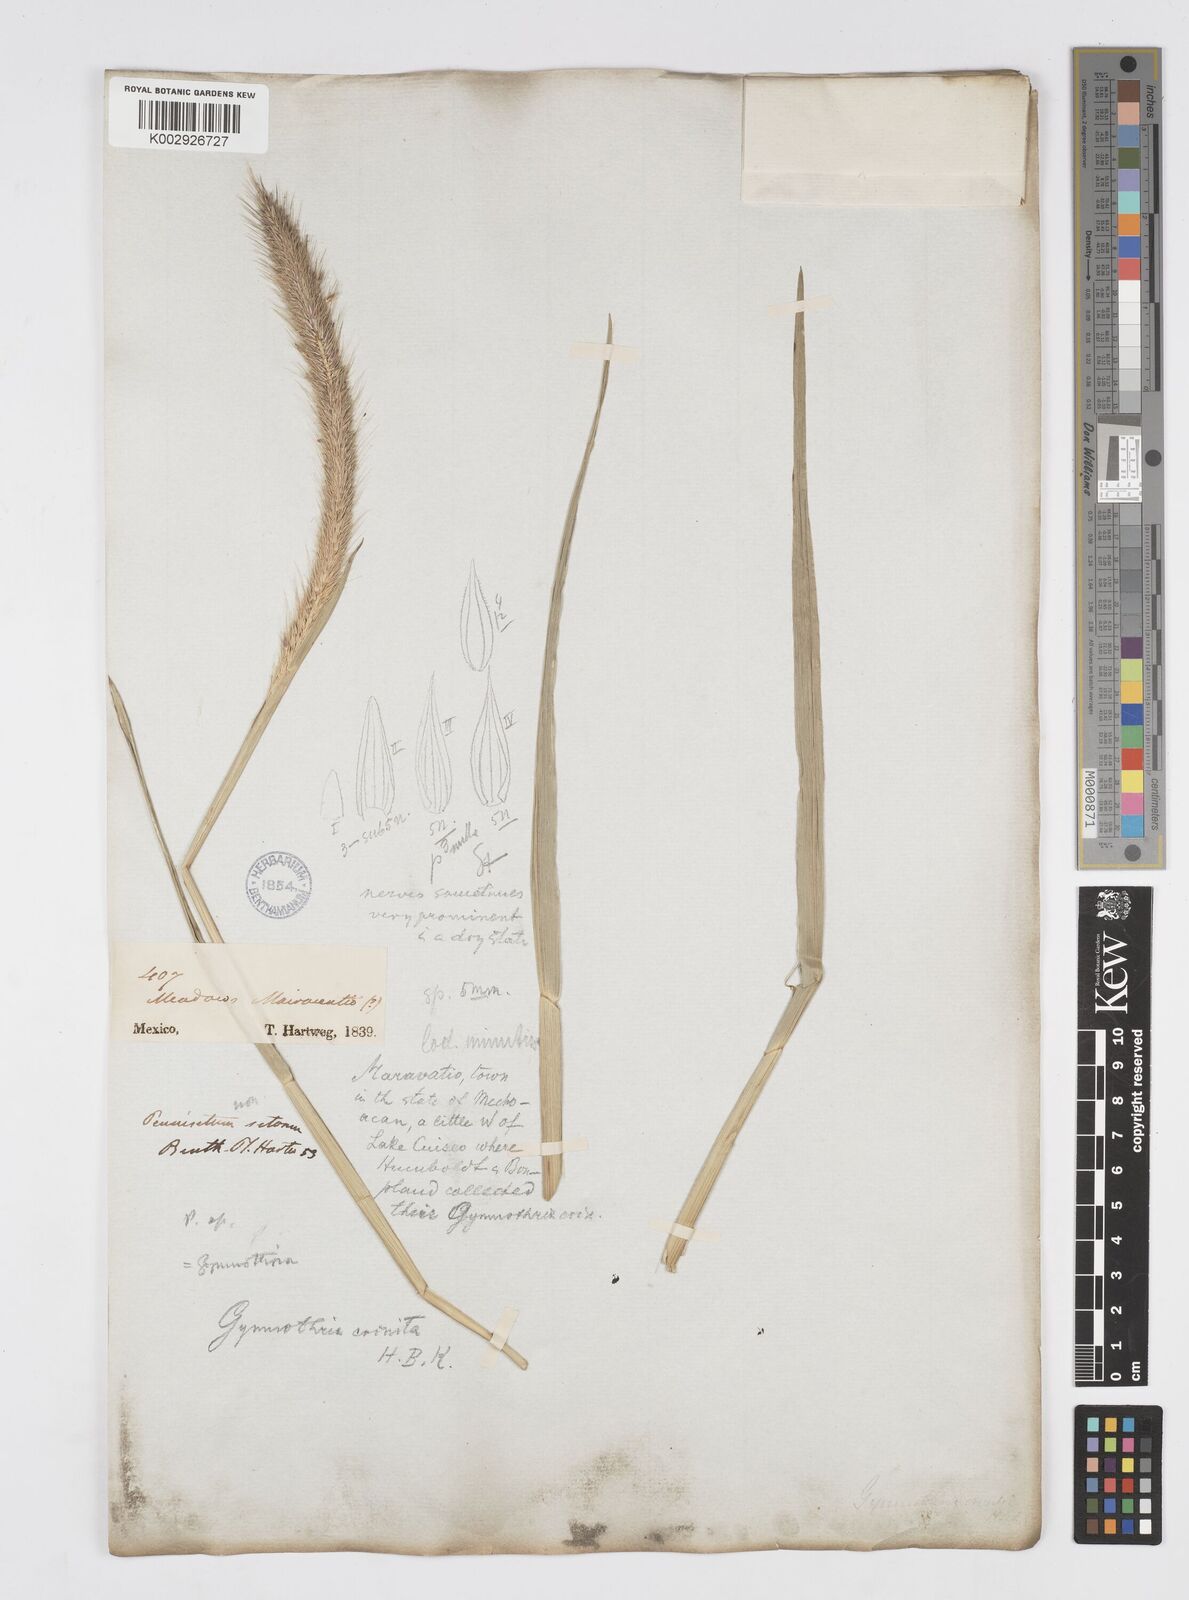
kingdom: Plantae
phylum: Tracheophyta
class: Liliopsida
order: Poales
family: Poaceae
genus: Cenchrus
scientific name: Cenchrus michoacanus
